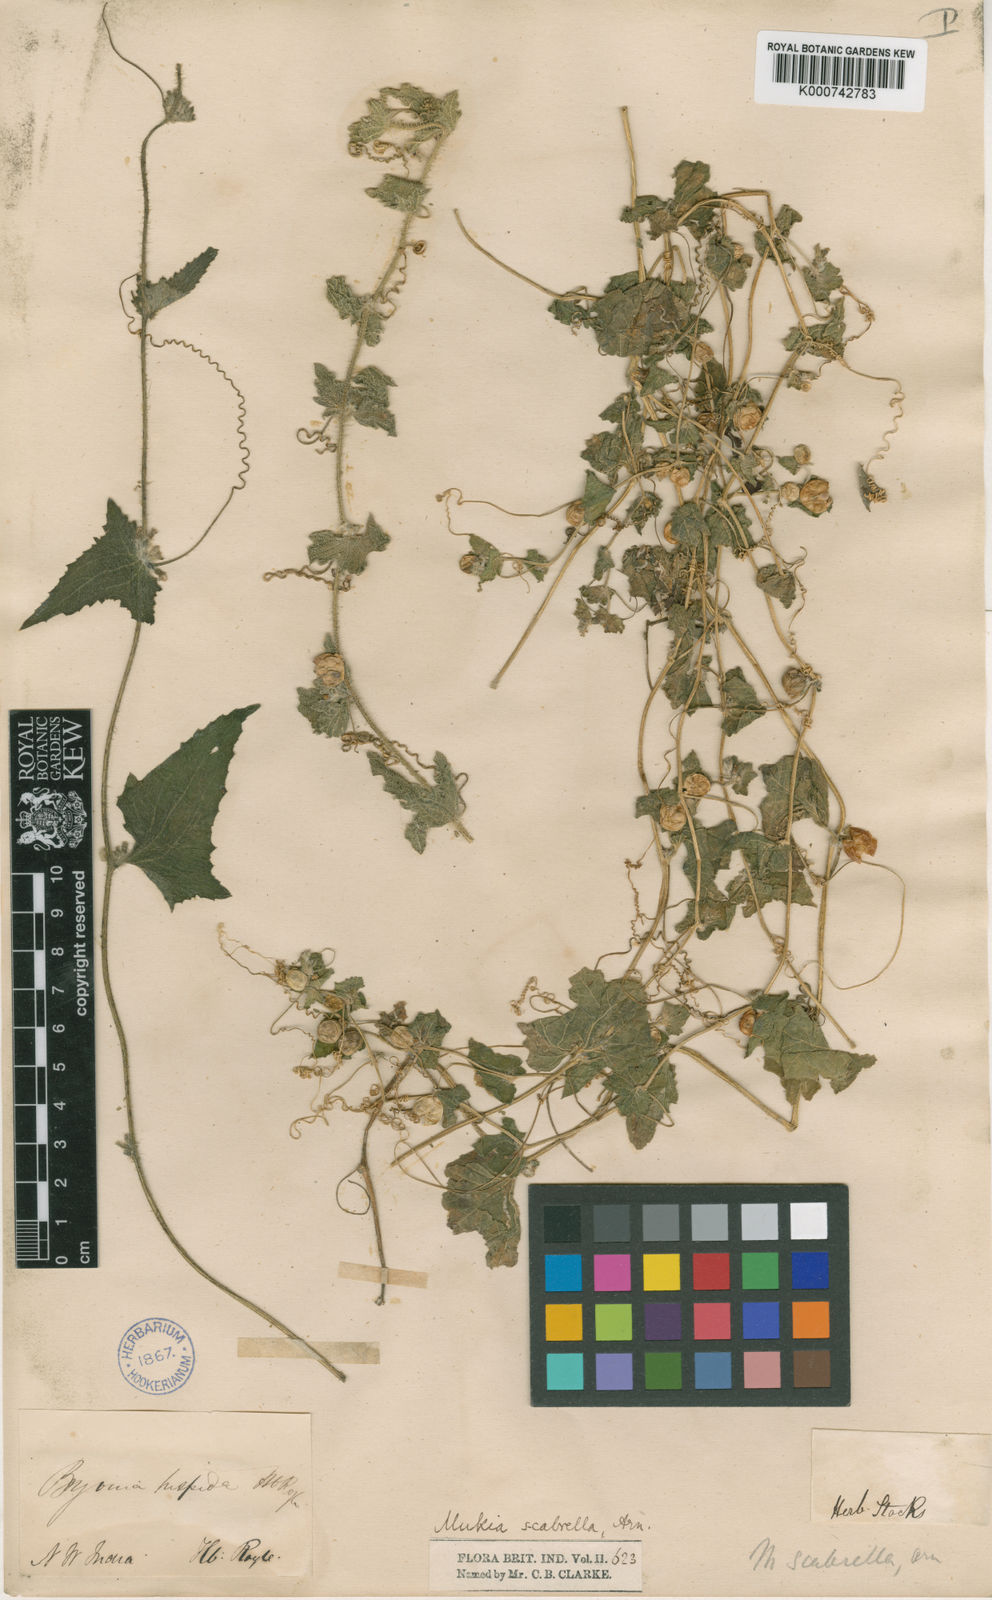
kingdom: Plantae
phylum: Tracheophyta
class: Magnoliopsida
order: Cucurbitales
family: Cucurbitaceae
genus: Cucumis
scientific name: Cucumis maderaspatanus
